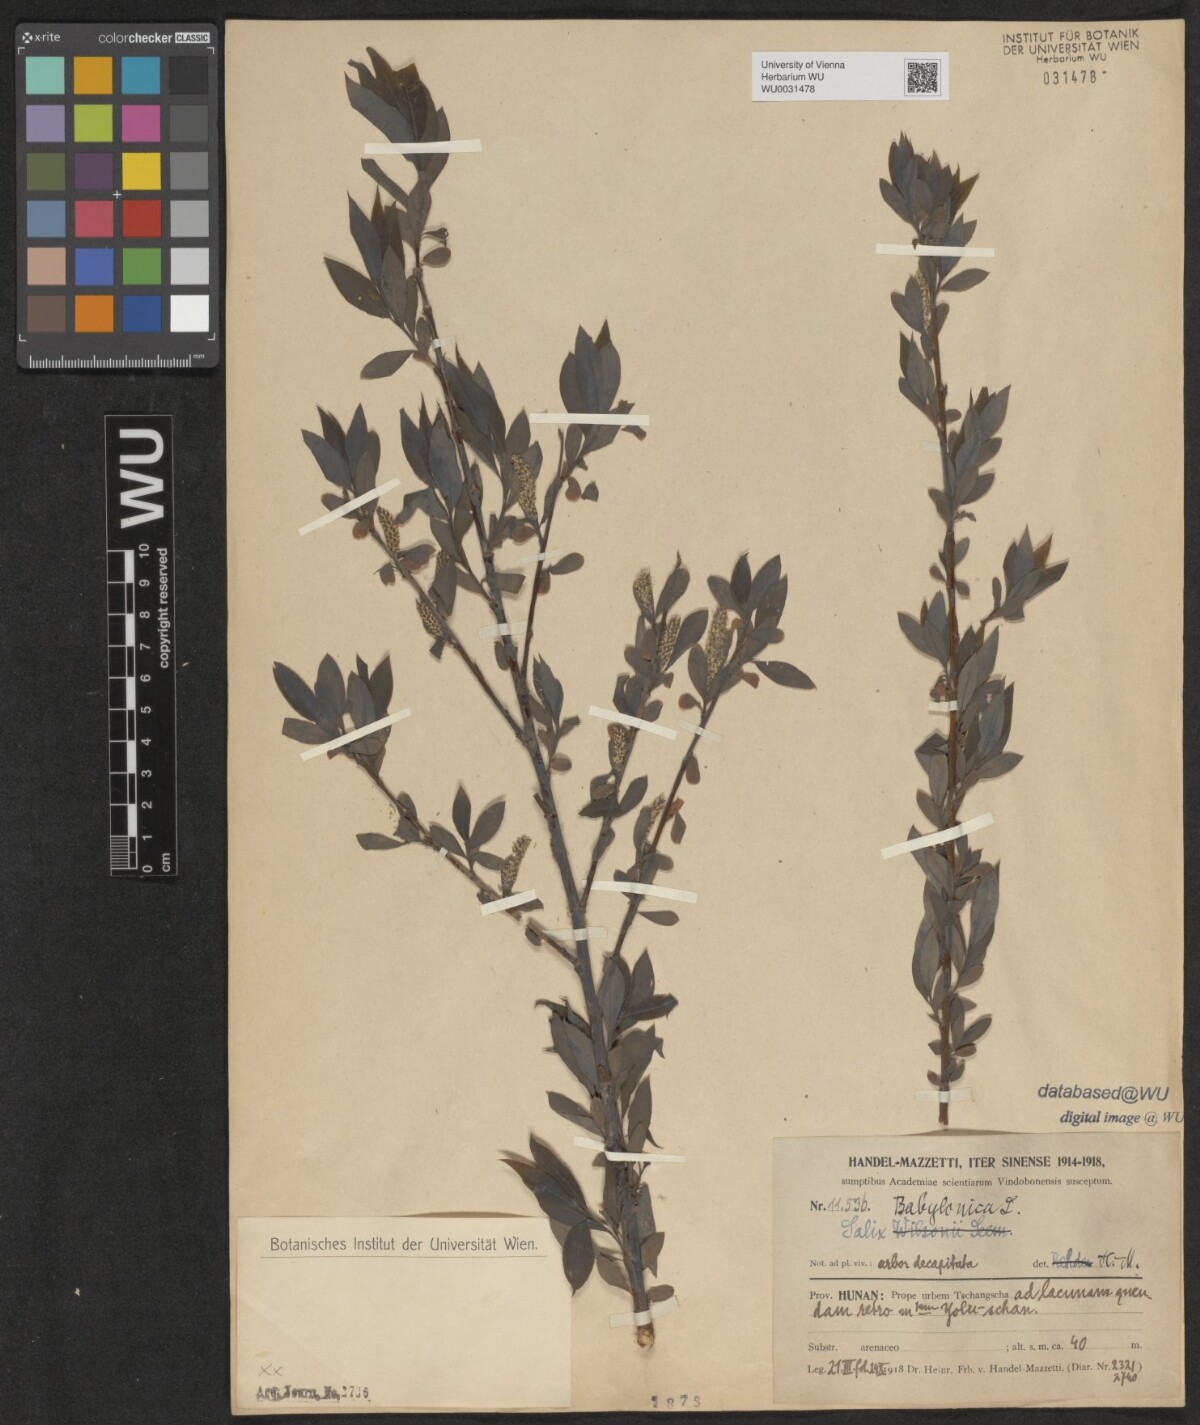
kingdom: Plantae
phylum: Tracheophyta
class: Magnoliopsida
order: Malpighiales
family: Salicaceae
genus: Salix
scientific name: Salix babylonica
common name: Weeping willow
